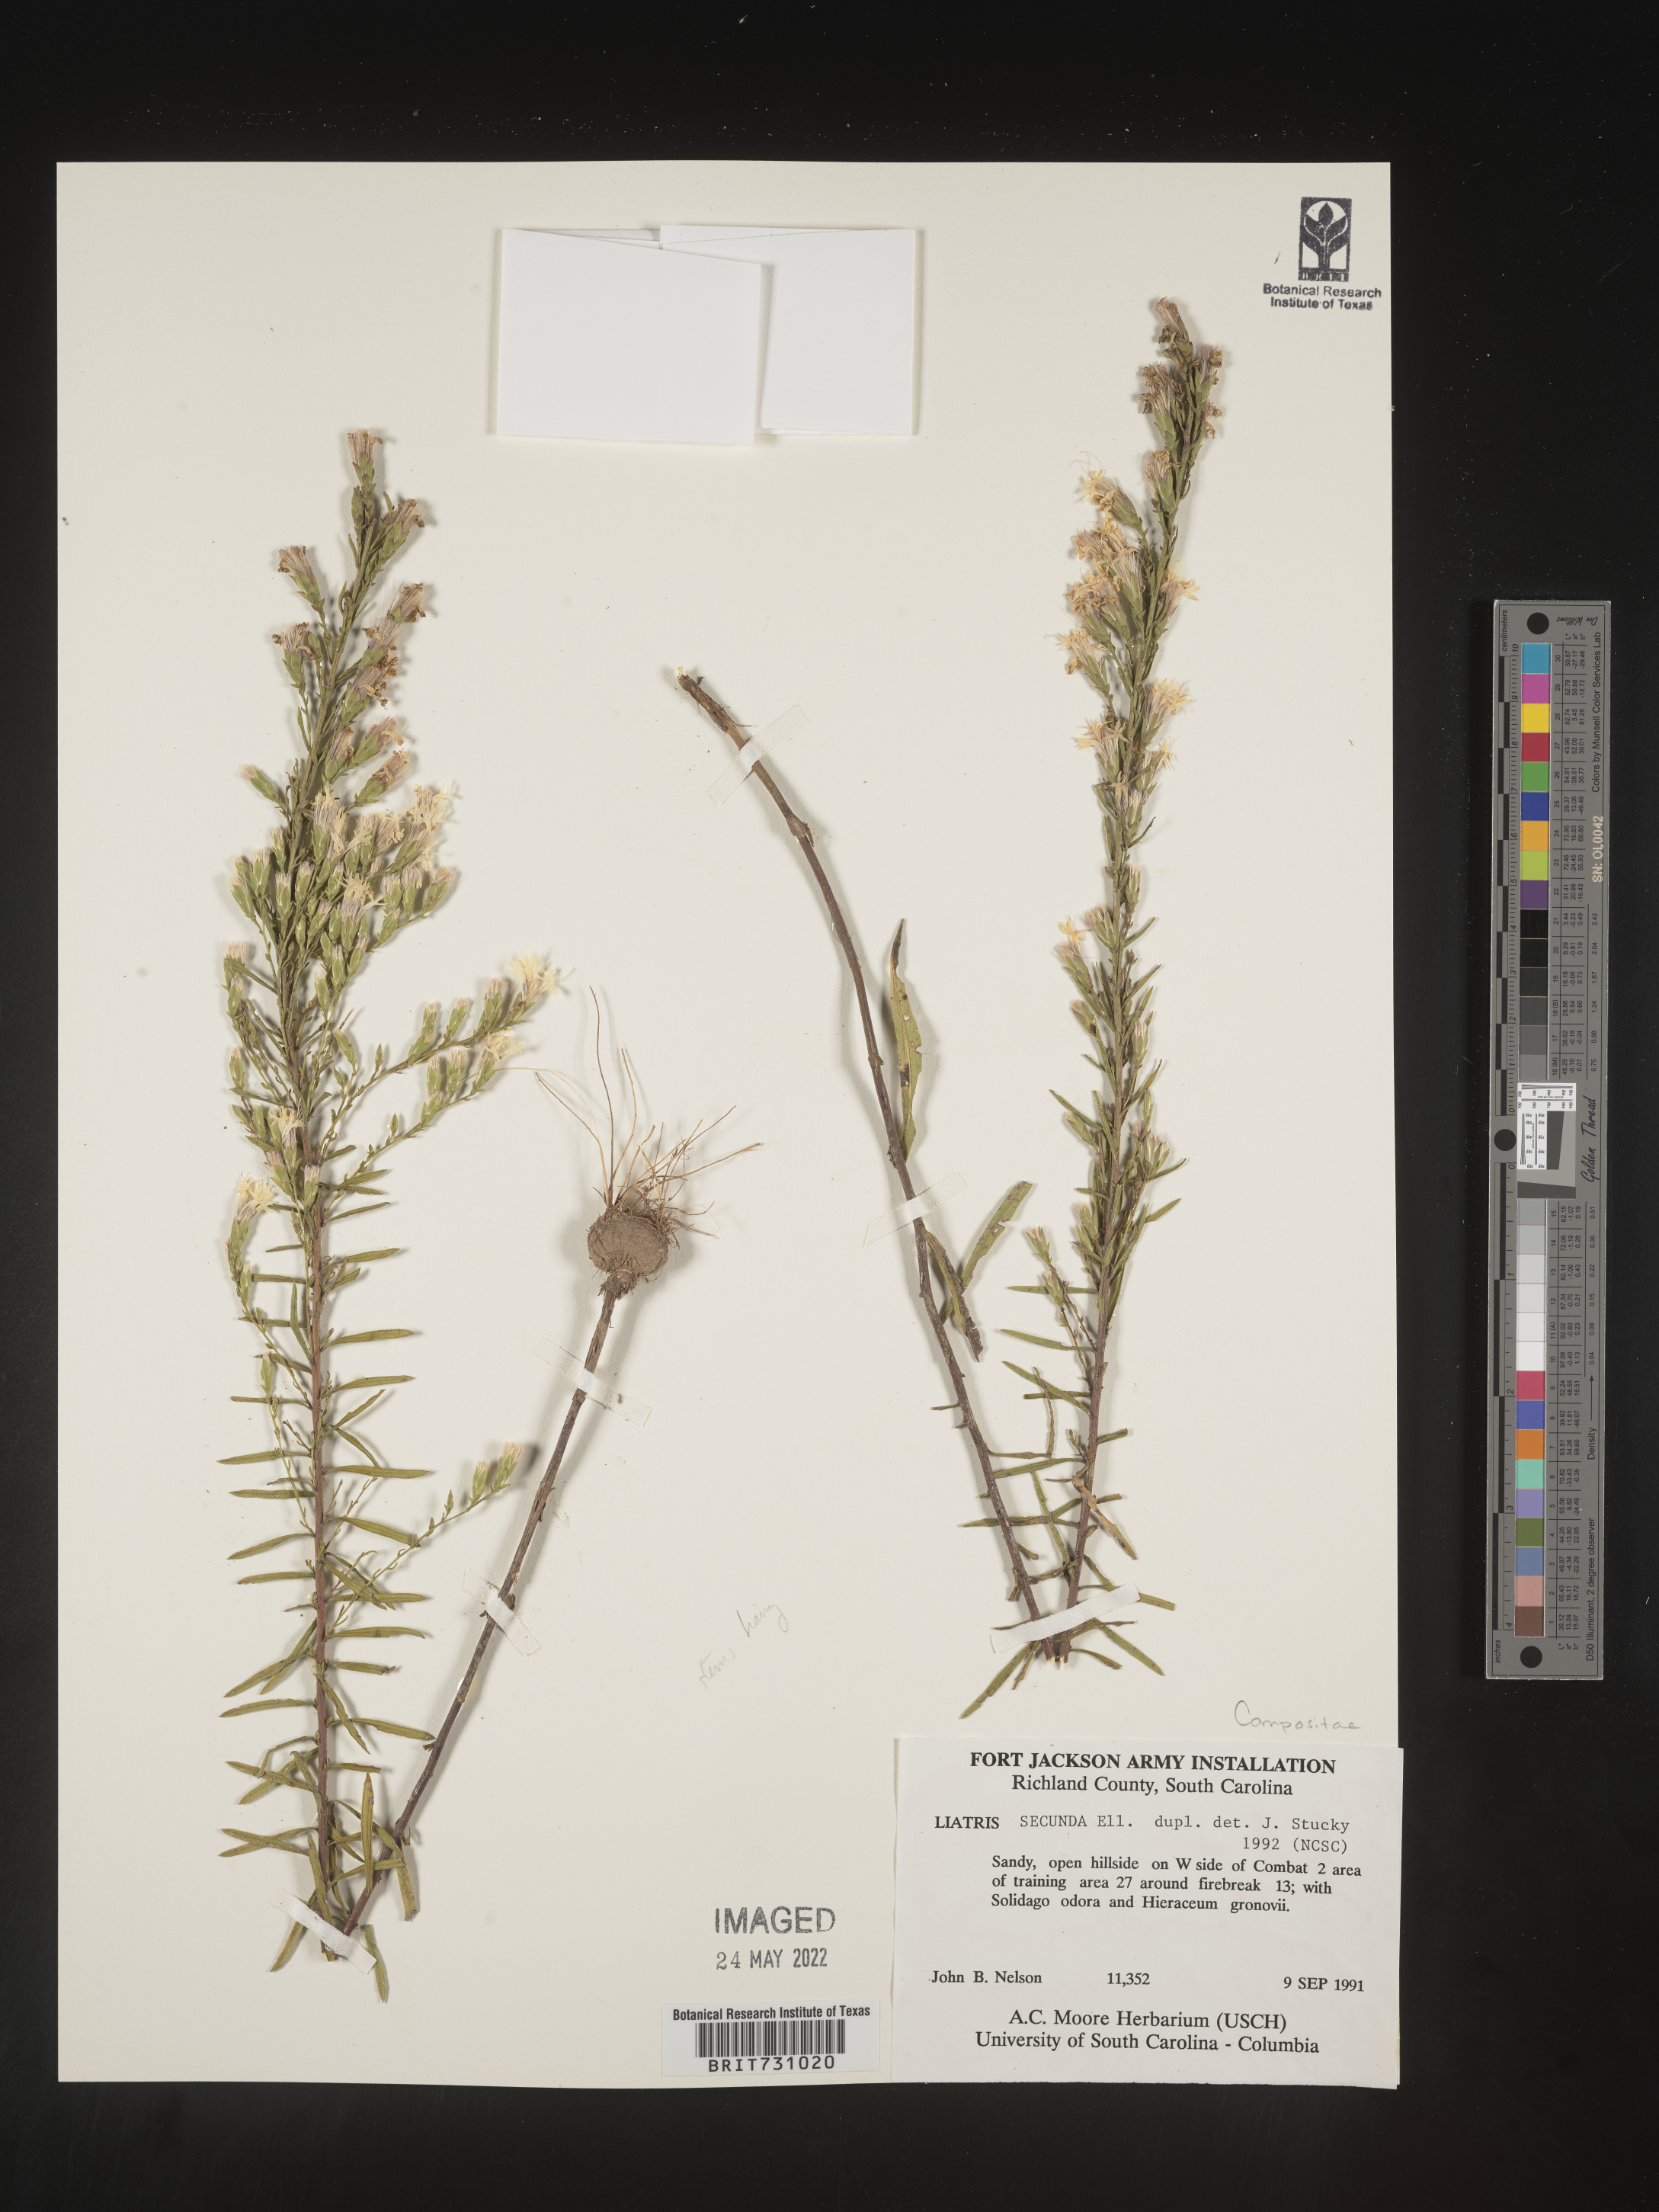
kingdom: Plantae
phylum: Tracheophyta
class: Magnoliopsida
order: Asterales
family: Asteraceae
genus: Liatris
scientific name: Liatris pauciflora
